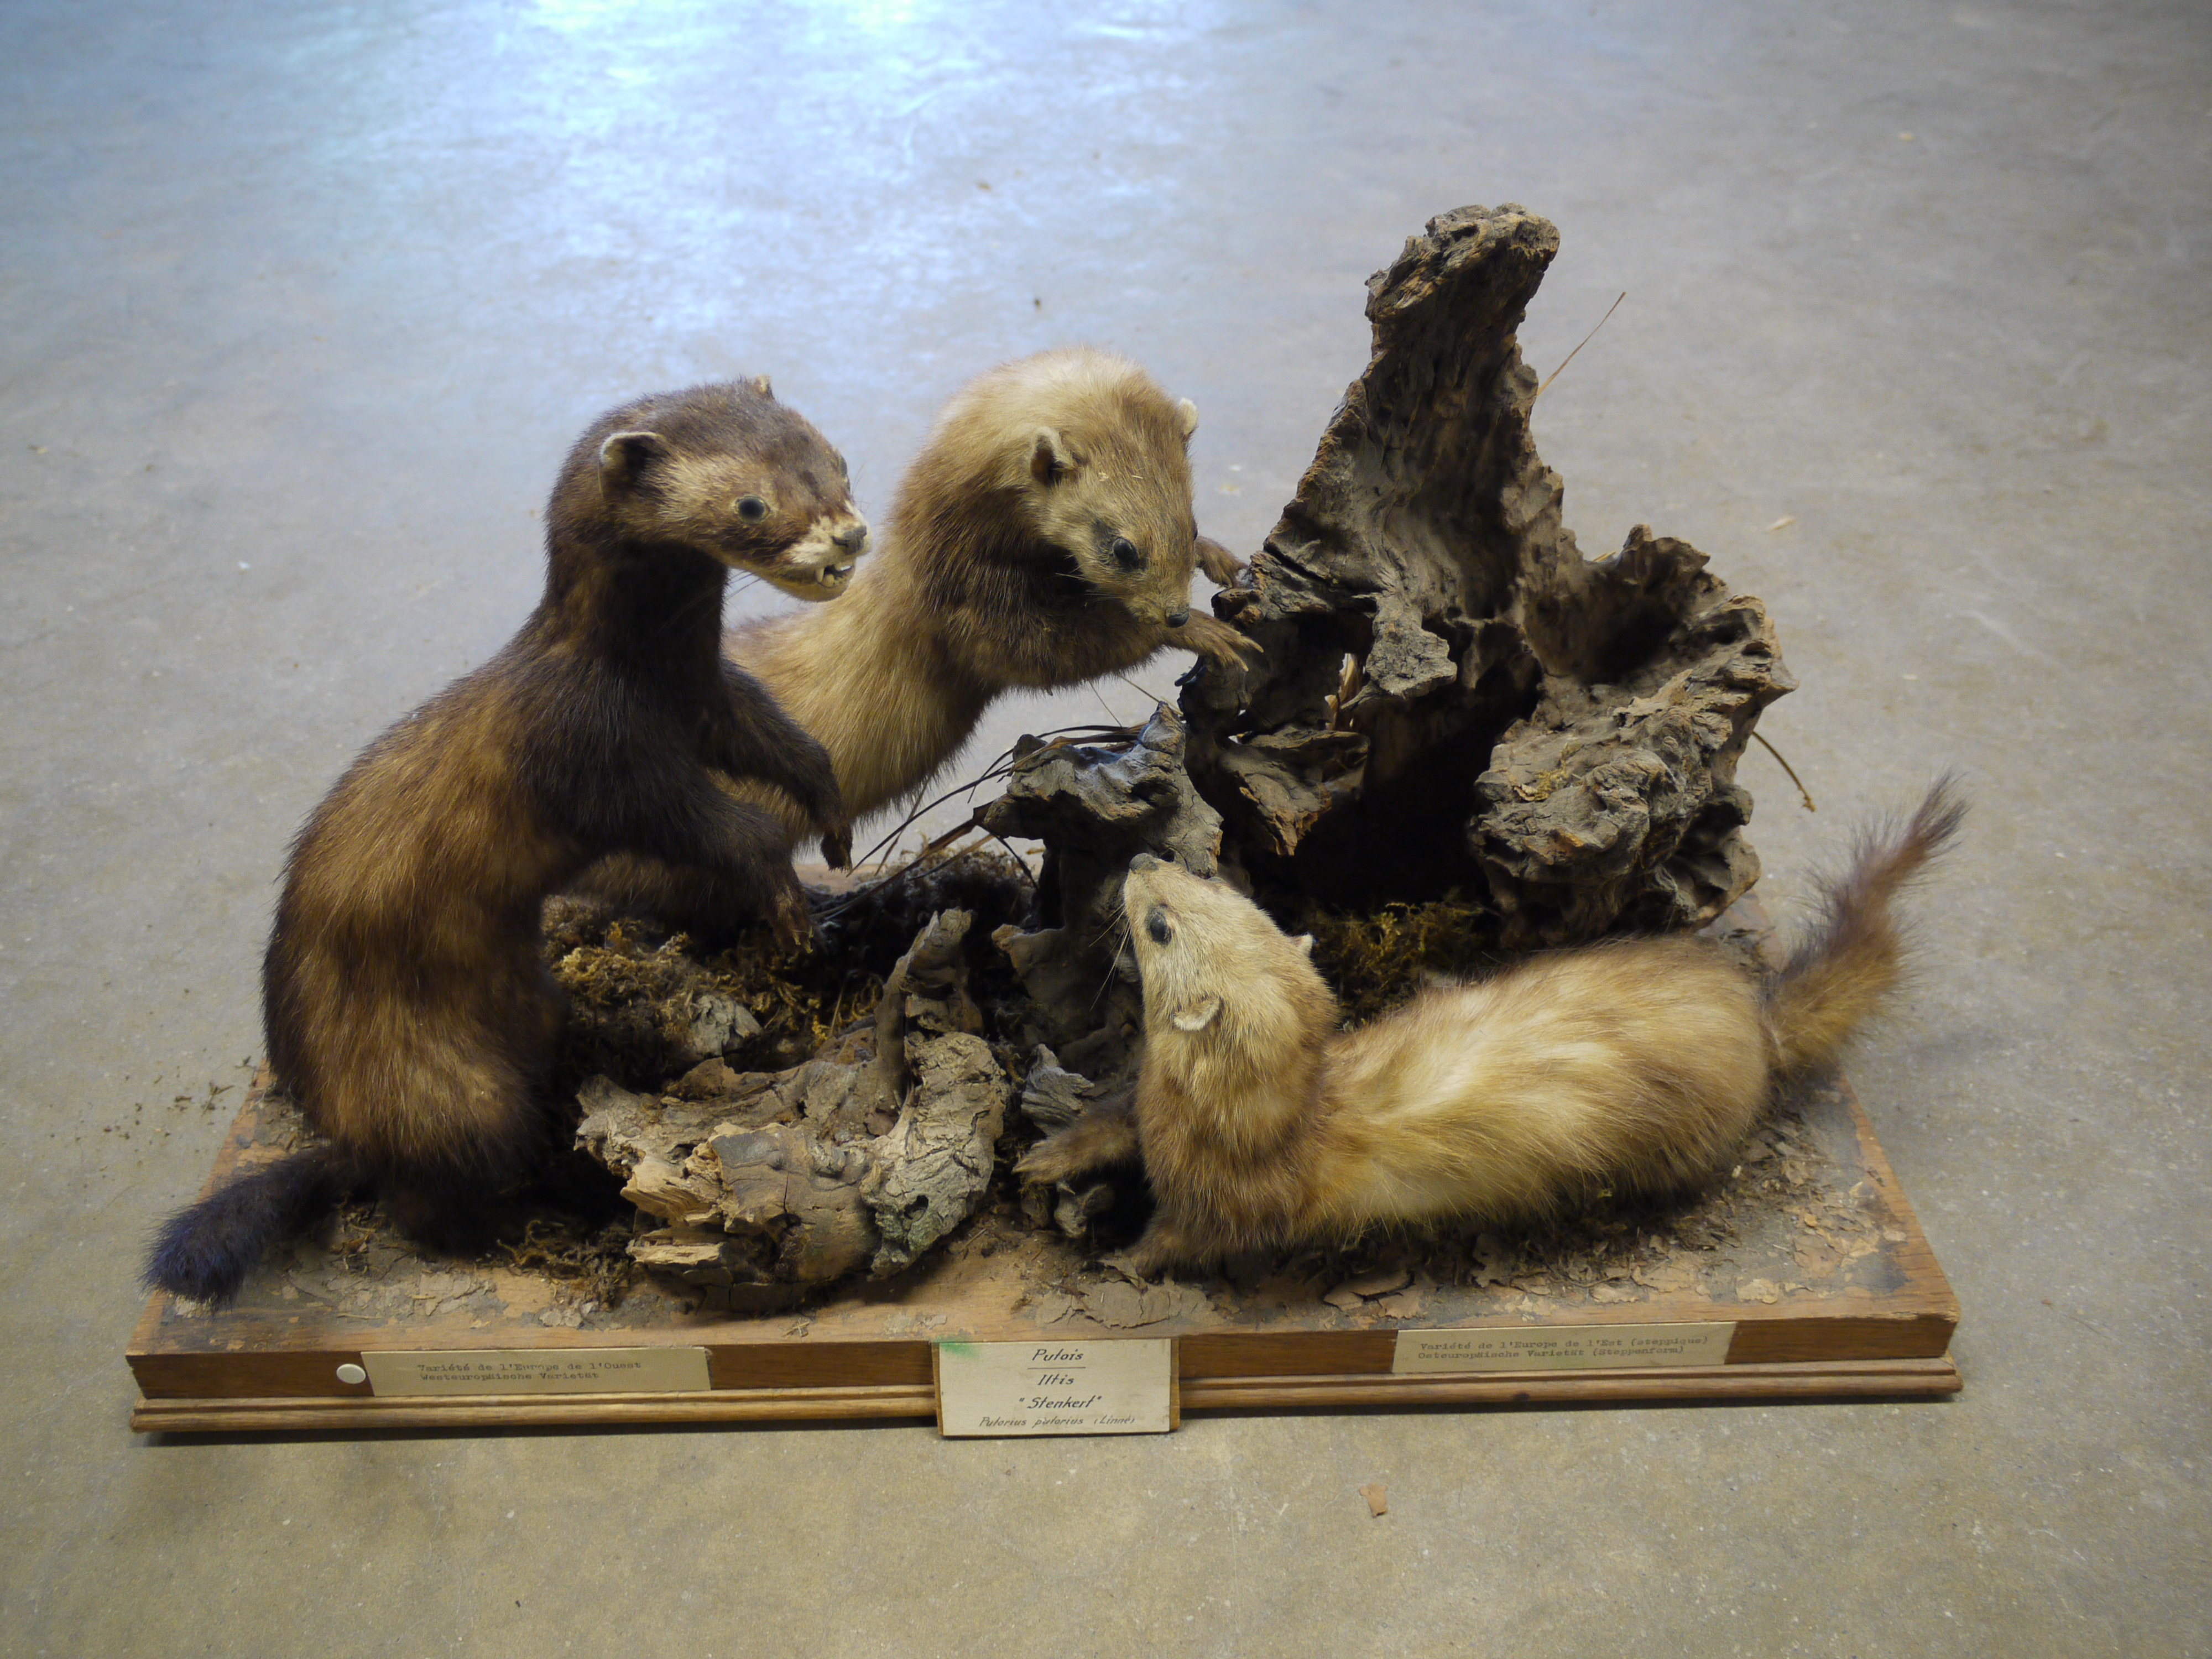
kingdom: Animalia
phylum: Chordata
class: Mammalia
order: Carnivora
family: Mustelidae
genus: Mustela
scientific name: Mustela putorius
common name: European polecat
